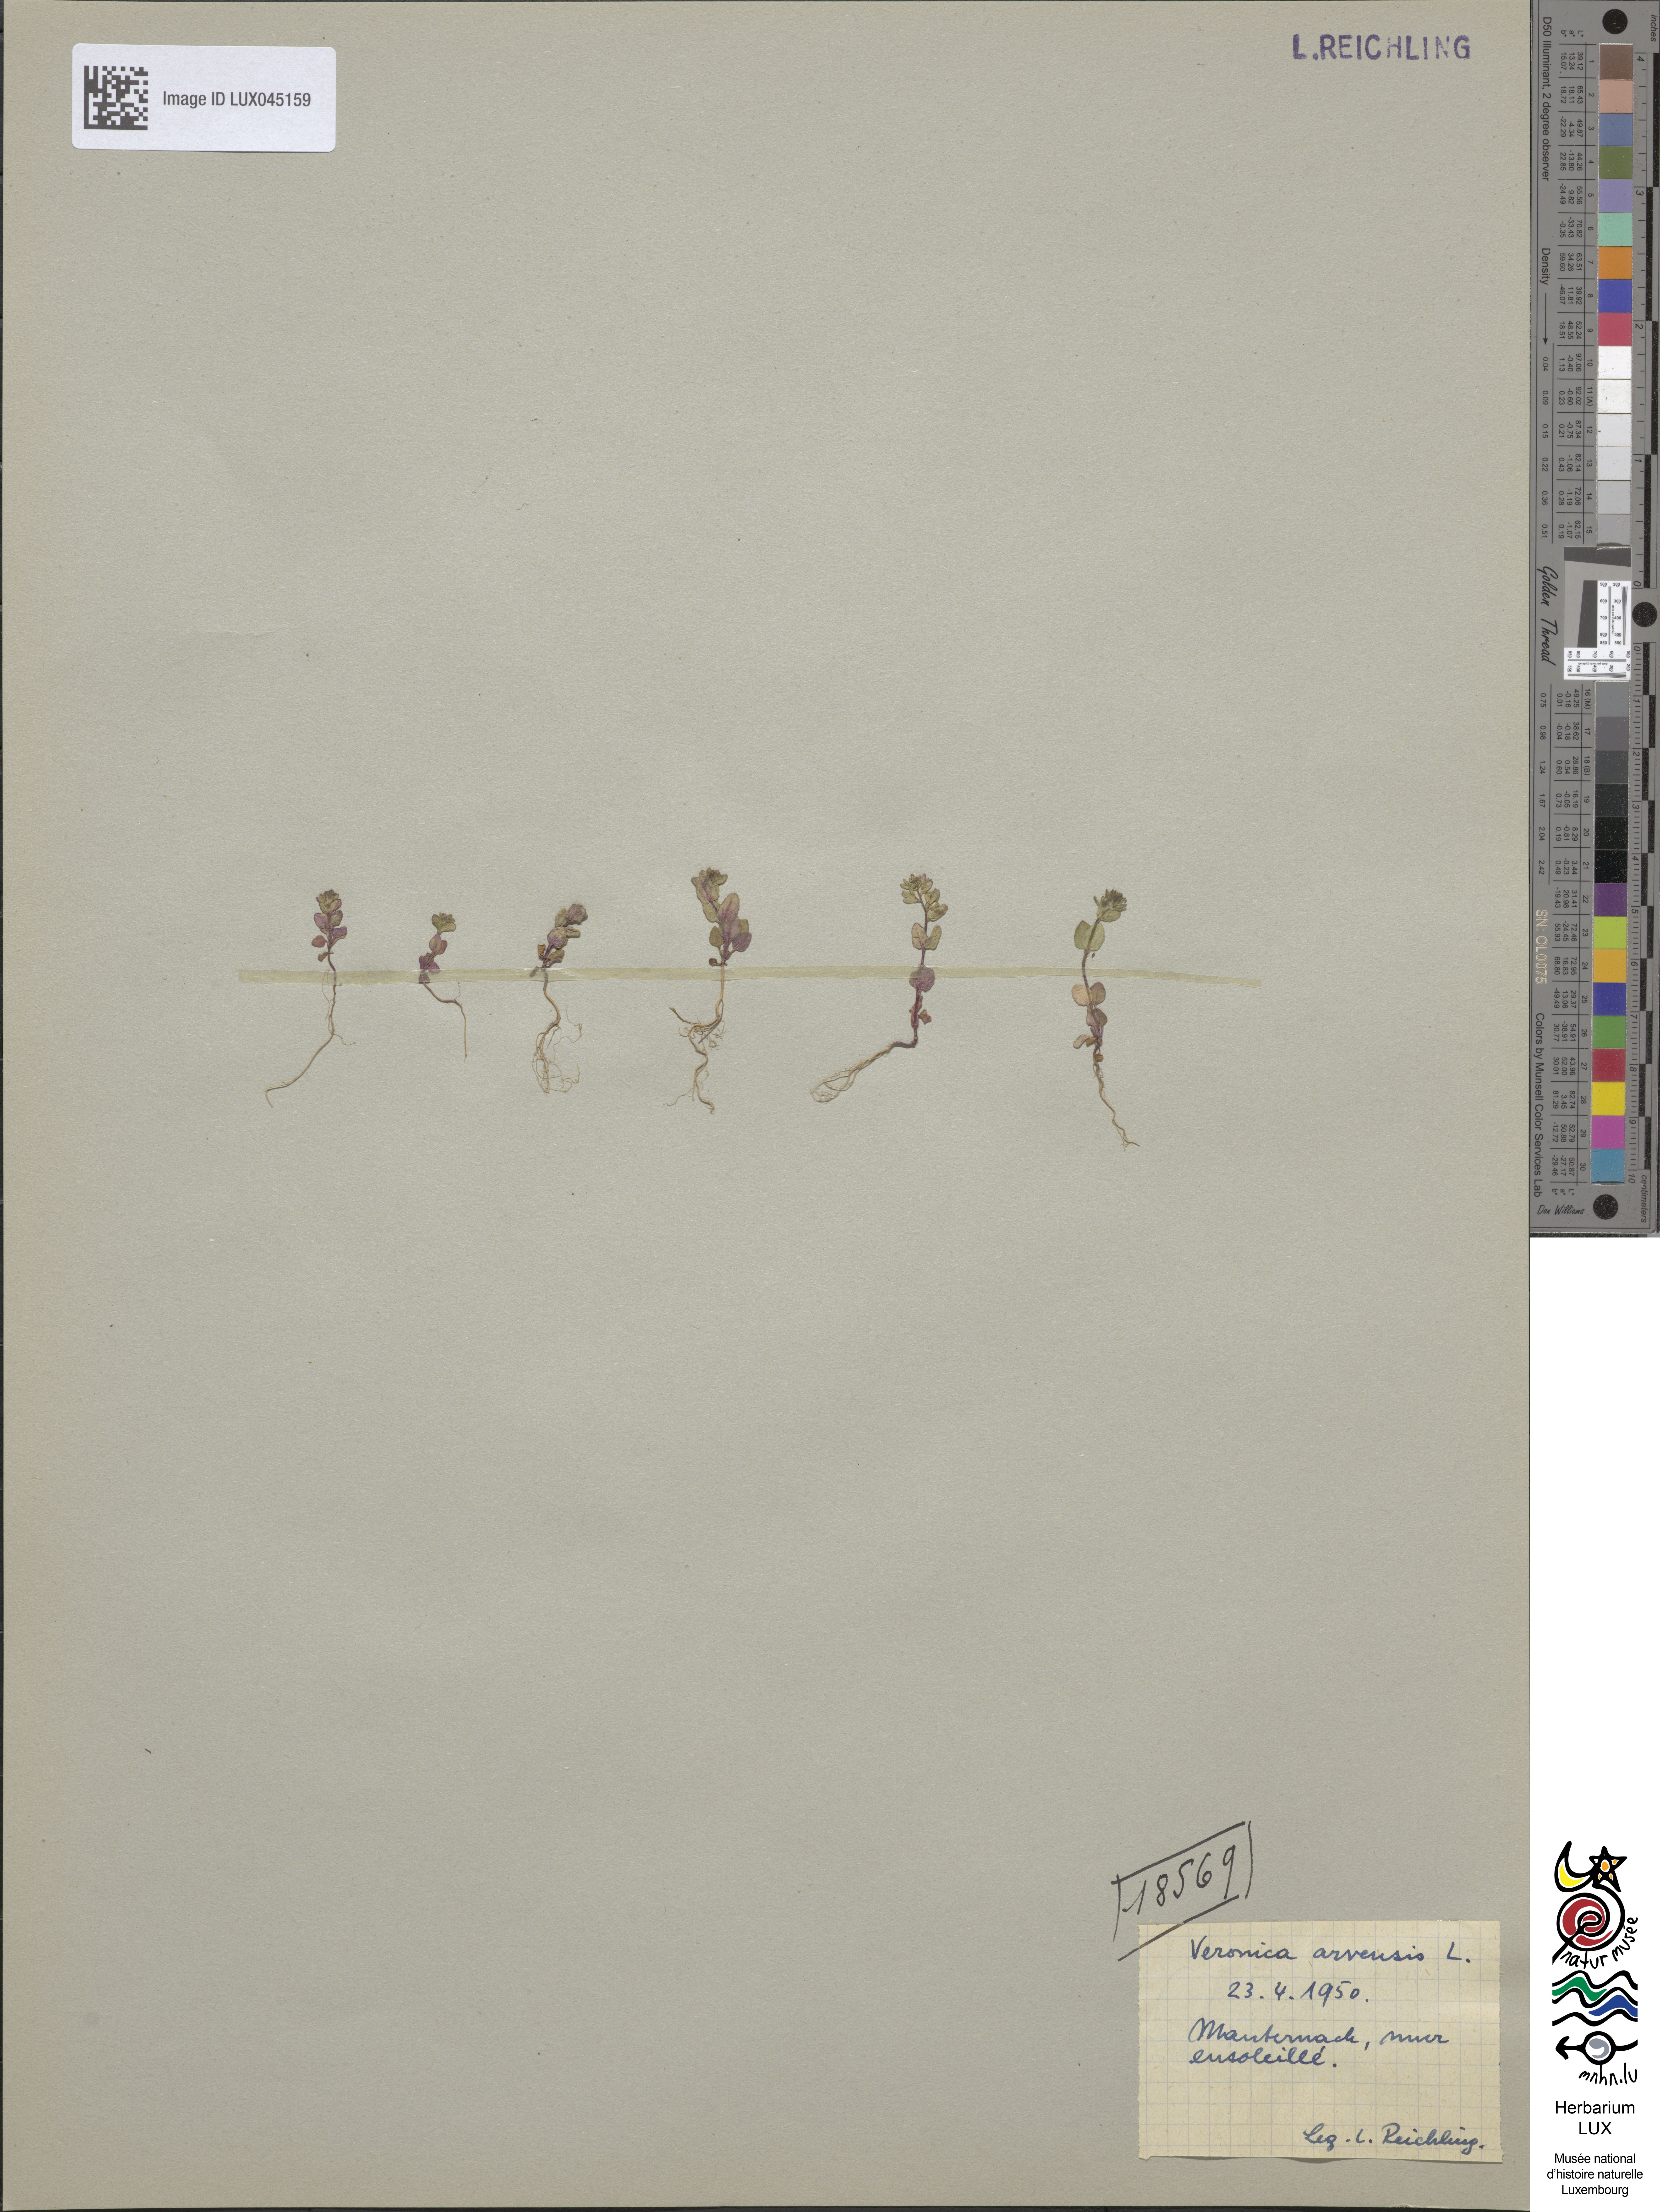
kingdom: Plantae
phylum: Tracheophyta
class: Magnoliopsida
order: Lamiales
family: Plantaginaceae
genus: Veronica
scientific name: Veronica arvensis
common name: Corn speedwell
